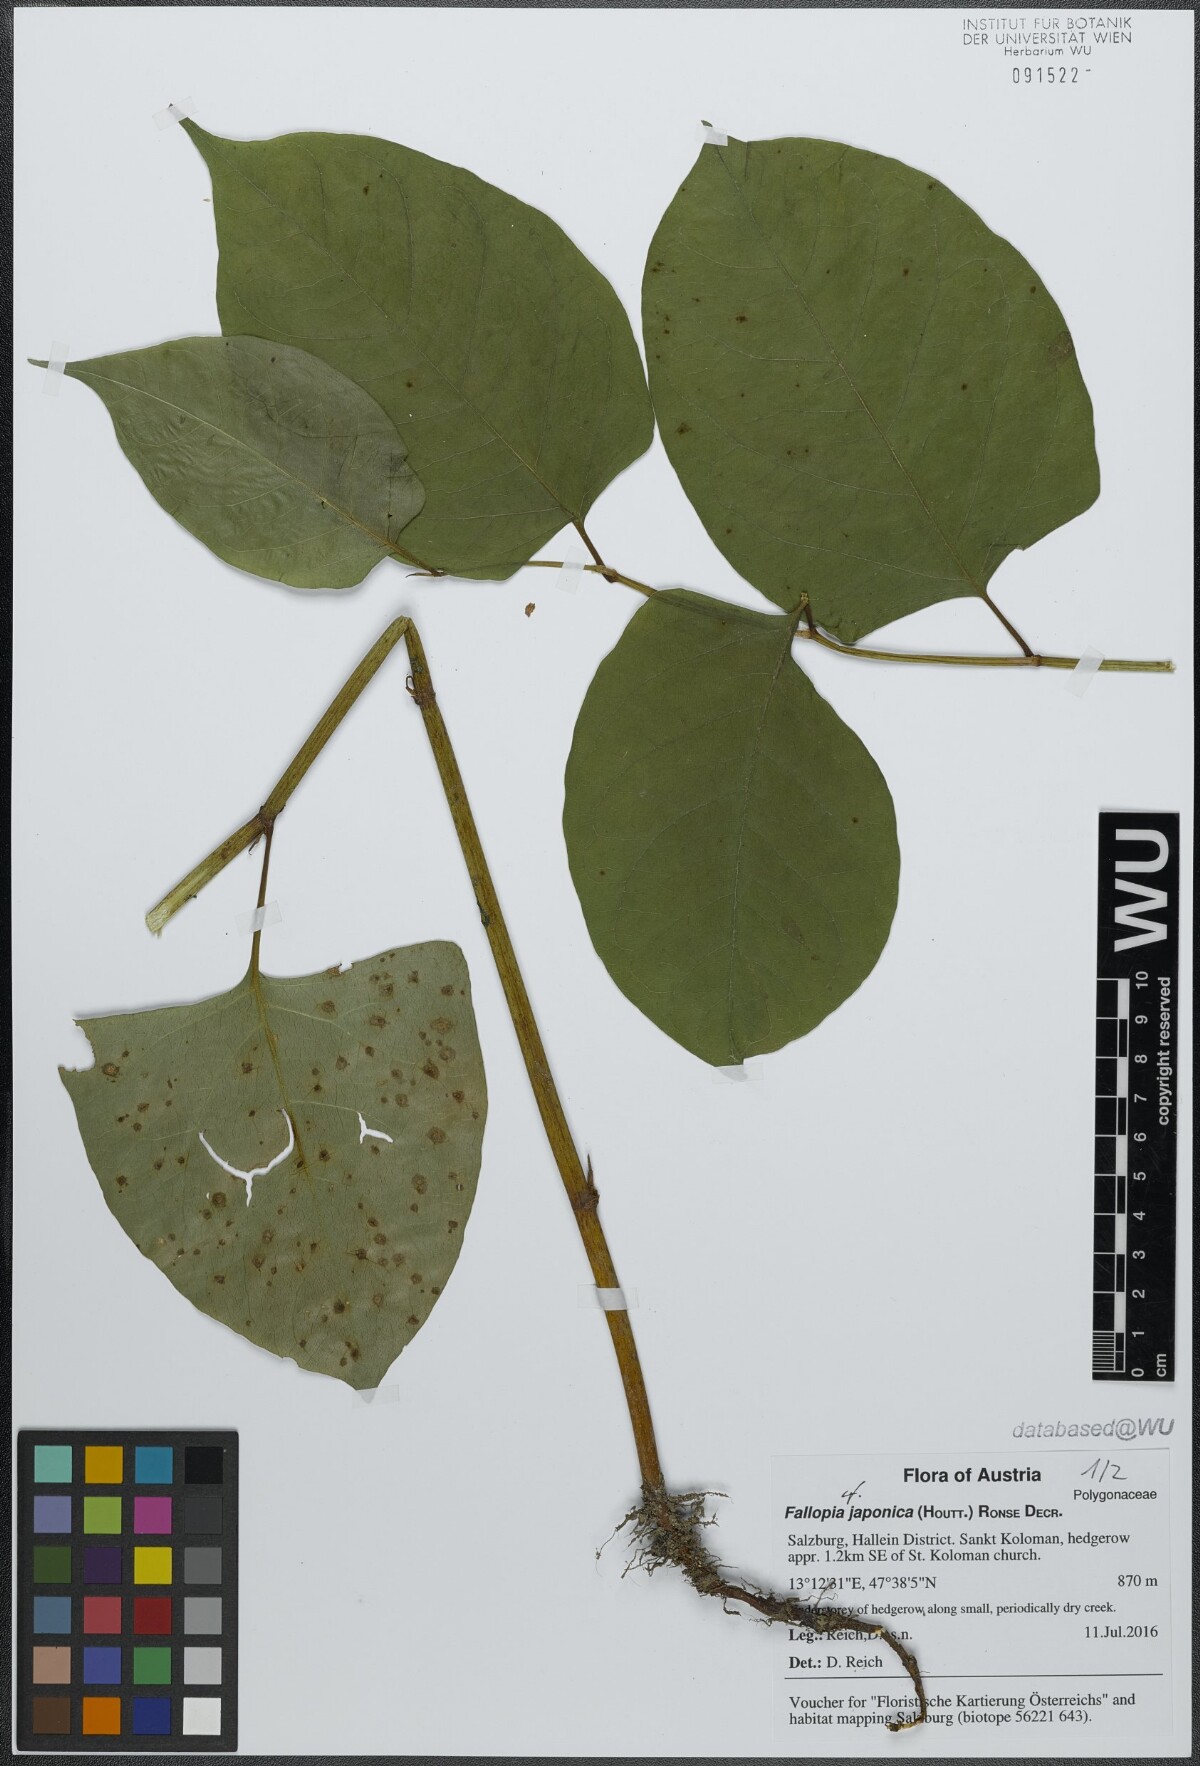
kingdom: Plantae
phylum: Tracheophyta
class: Magnoliopsida
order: Caryophyllales
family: Polygonaceae
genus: Reynoutria
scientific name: Reynoutria bohemica
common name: Bohemian knotweed
